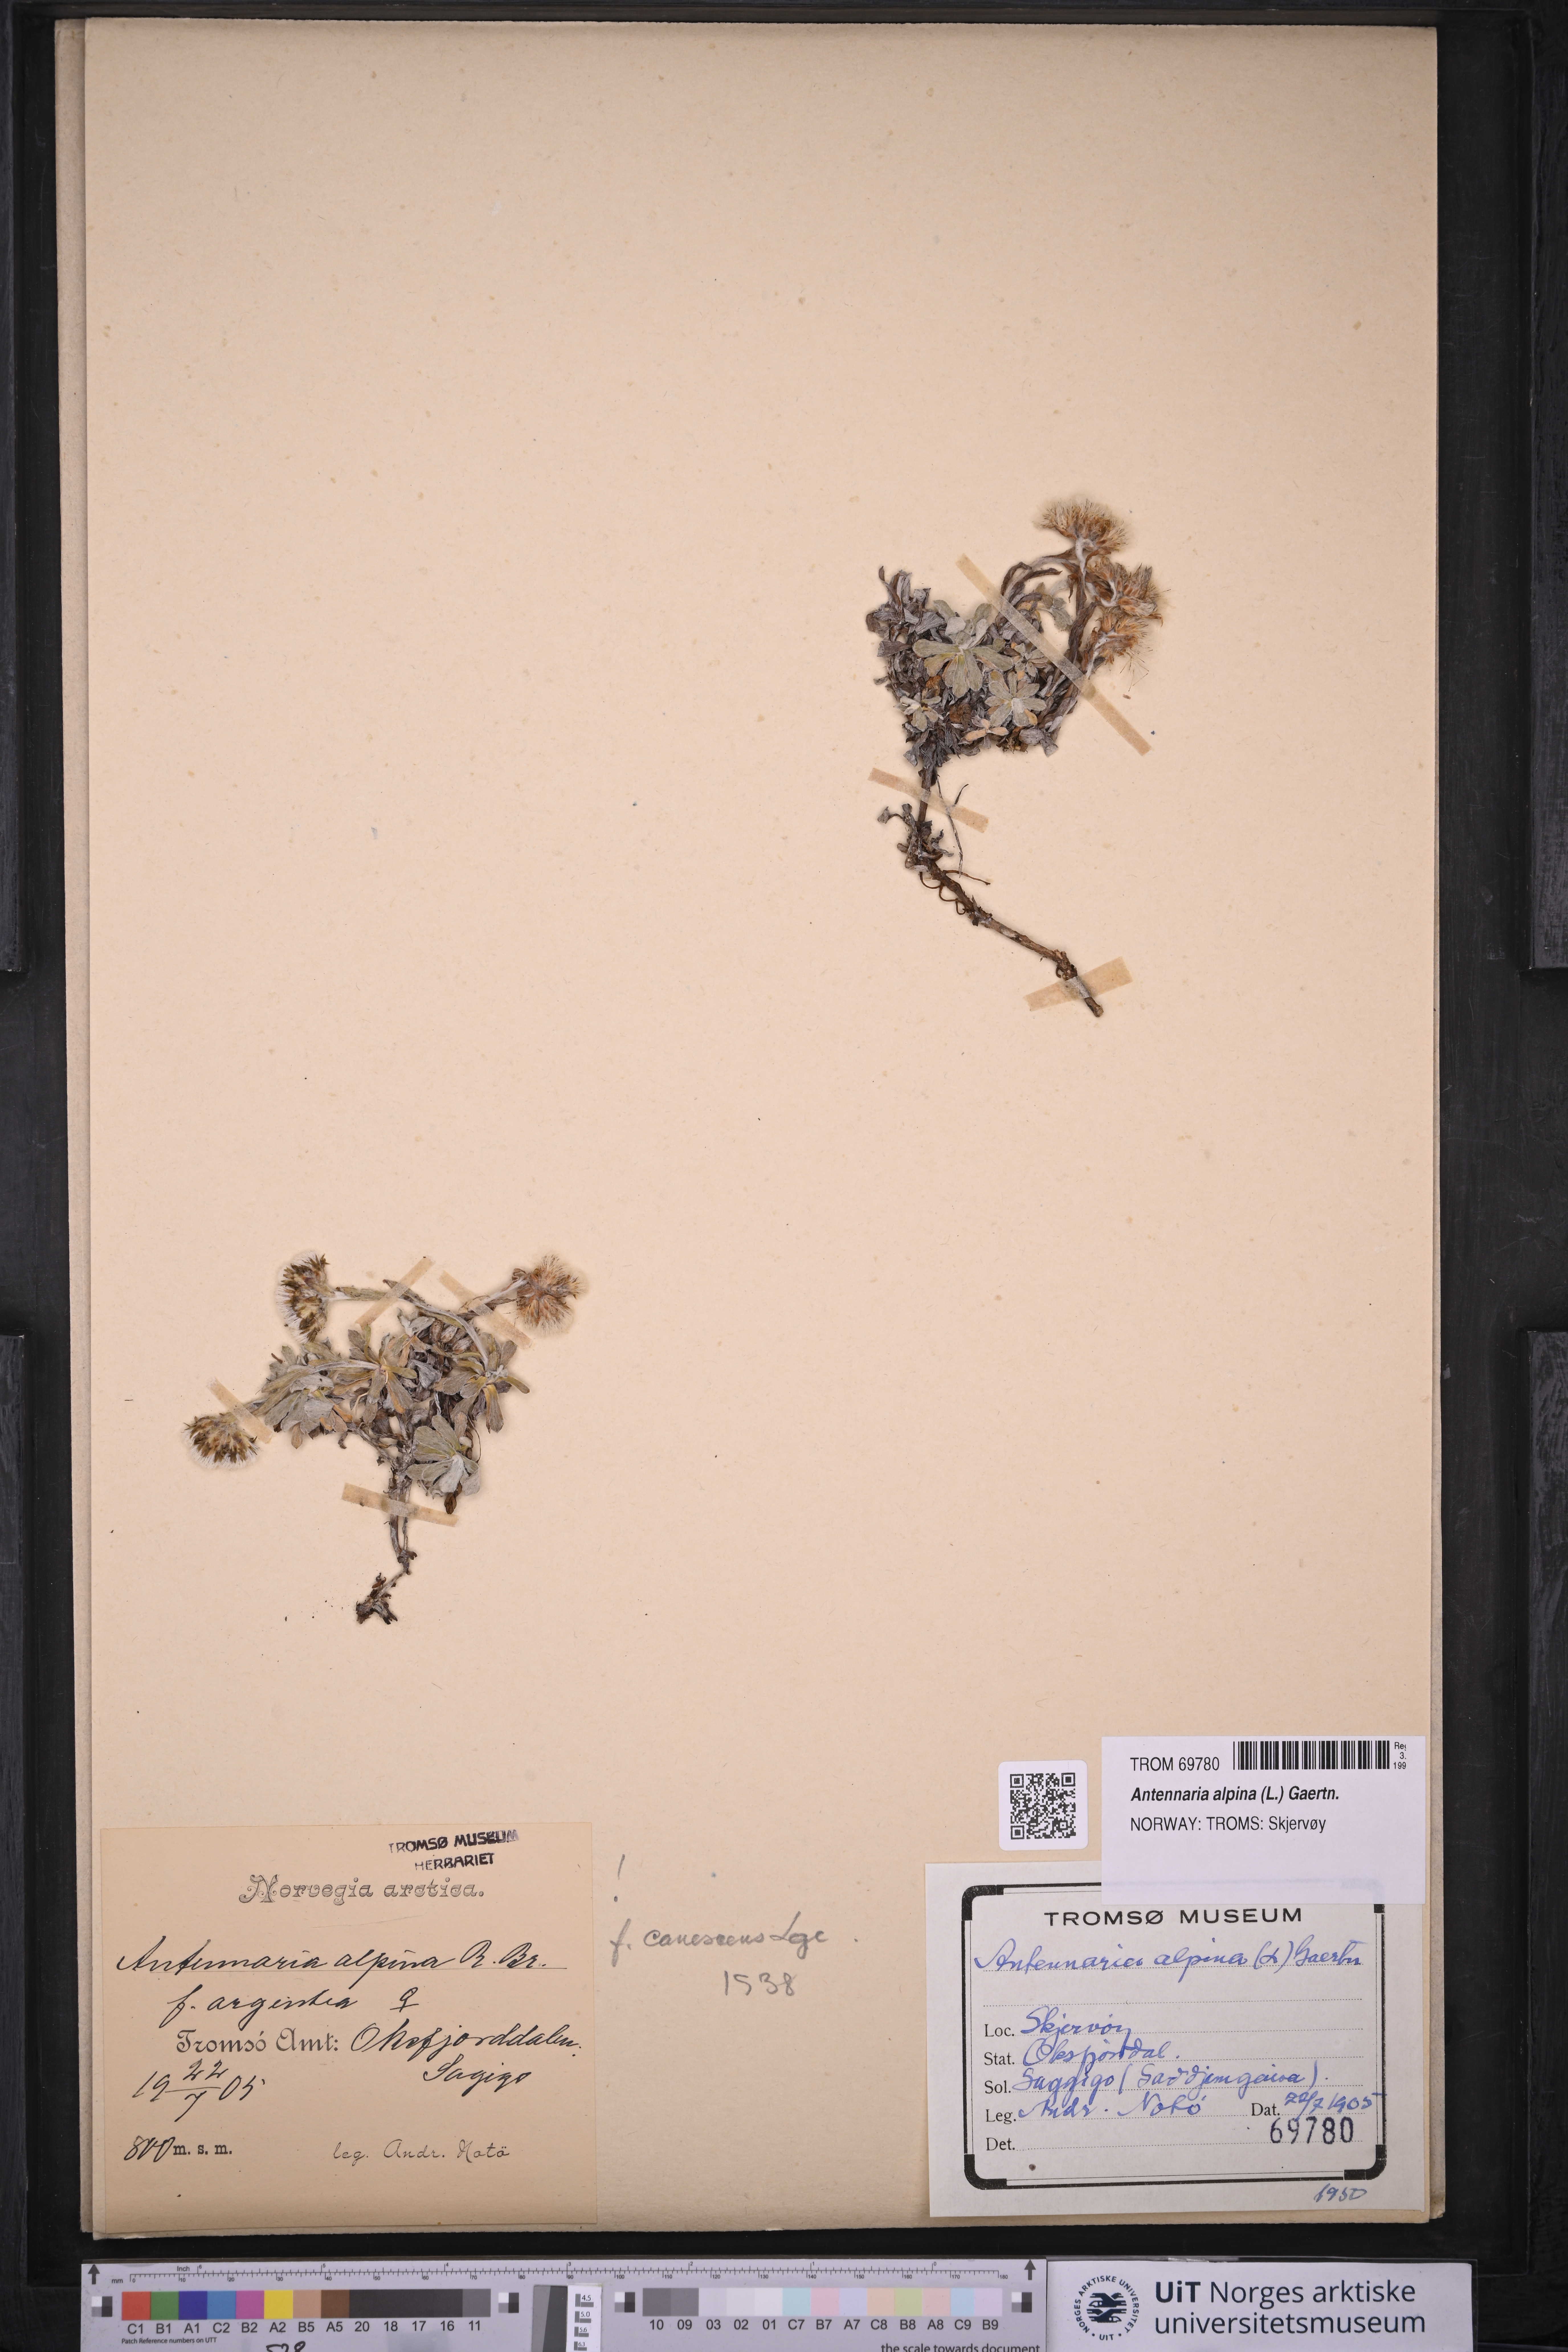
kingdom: Plantae
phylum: Tracheophyta
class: Magnoliopsida
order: Asterales
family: Asteraceae
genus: Antennaria
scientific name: Antennaria alpina
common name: Alpine pussytoes
